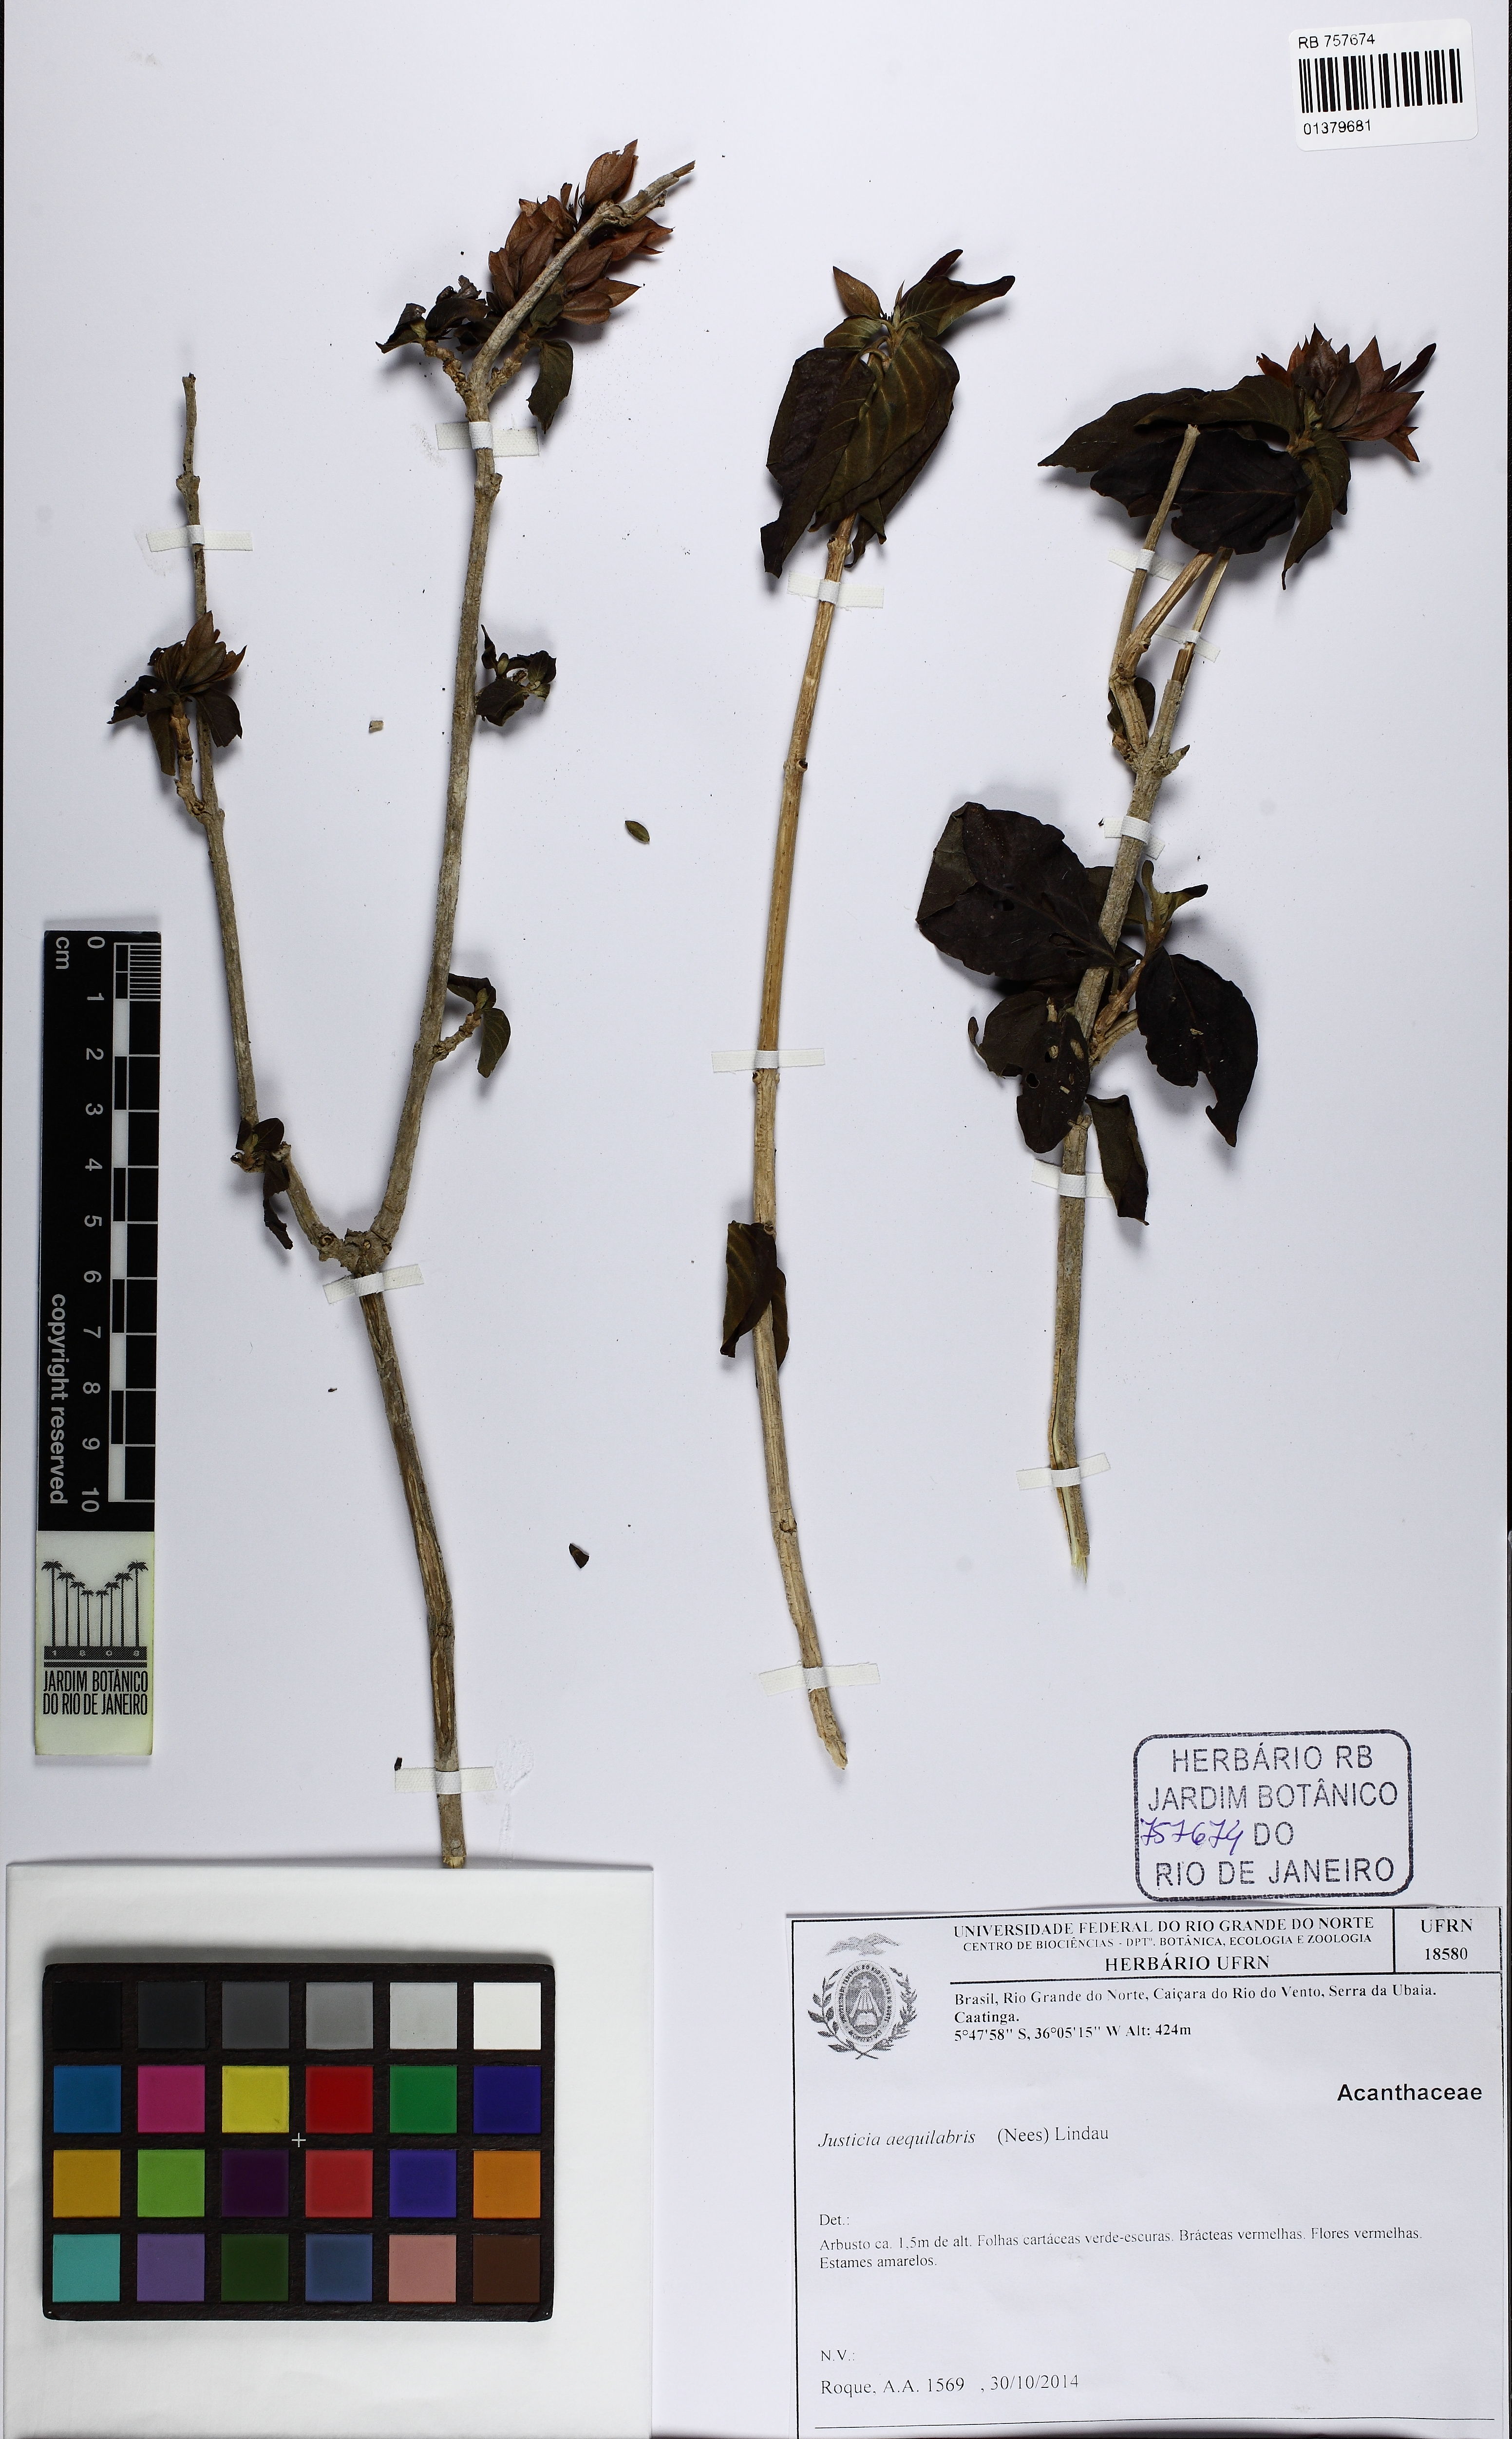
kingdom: Plantae
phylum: Tracheophyta
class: Magnoliopsida
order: Lamiales
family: Acanthaceae
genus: Justicia
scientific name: Justicia aequilabris
